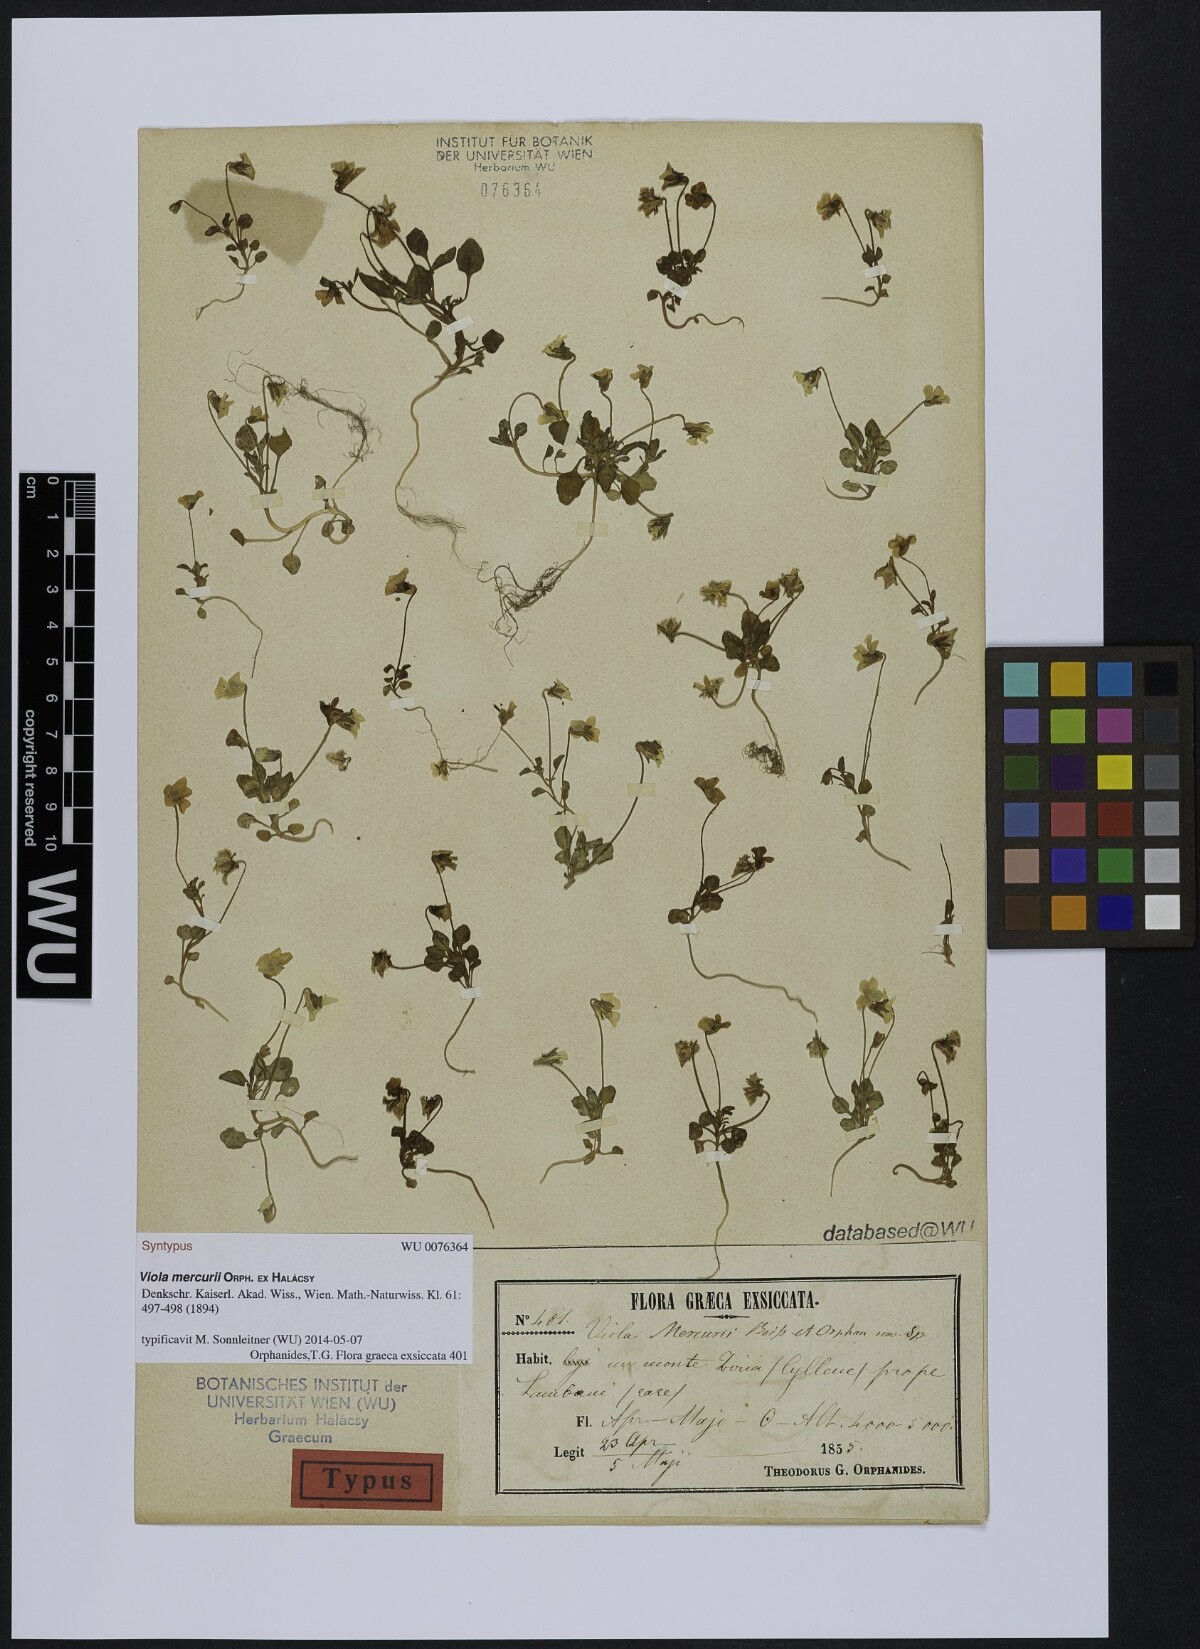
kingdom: Plantae
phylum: Tracheophyta
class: Magnoliopsida
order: Malpighiales
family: Violaceae
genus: Viola
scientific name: Viola mercurii
